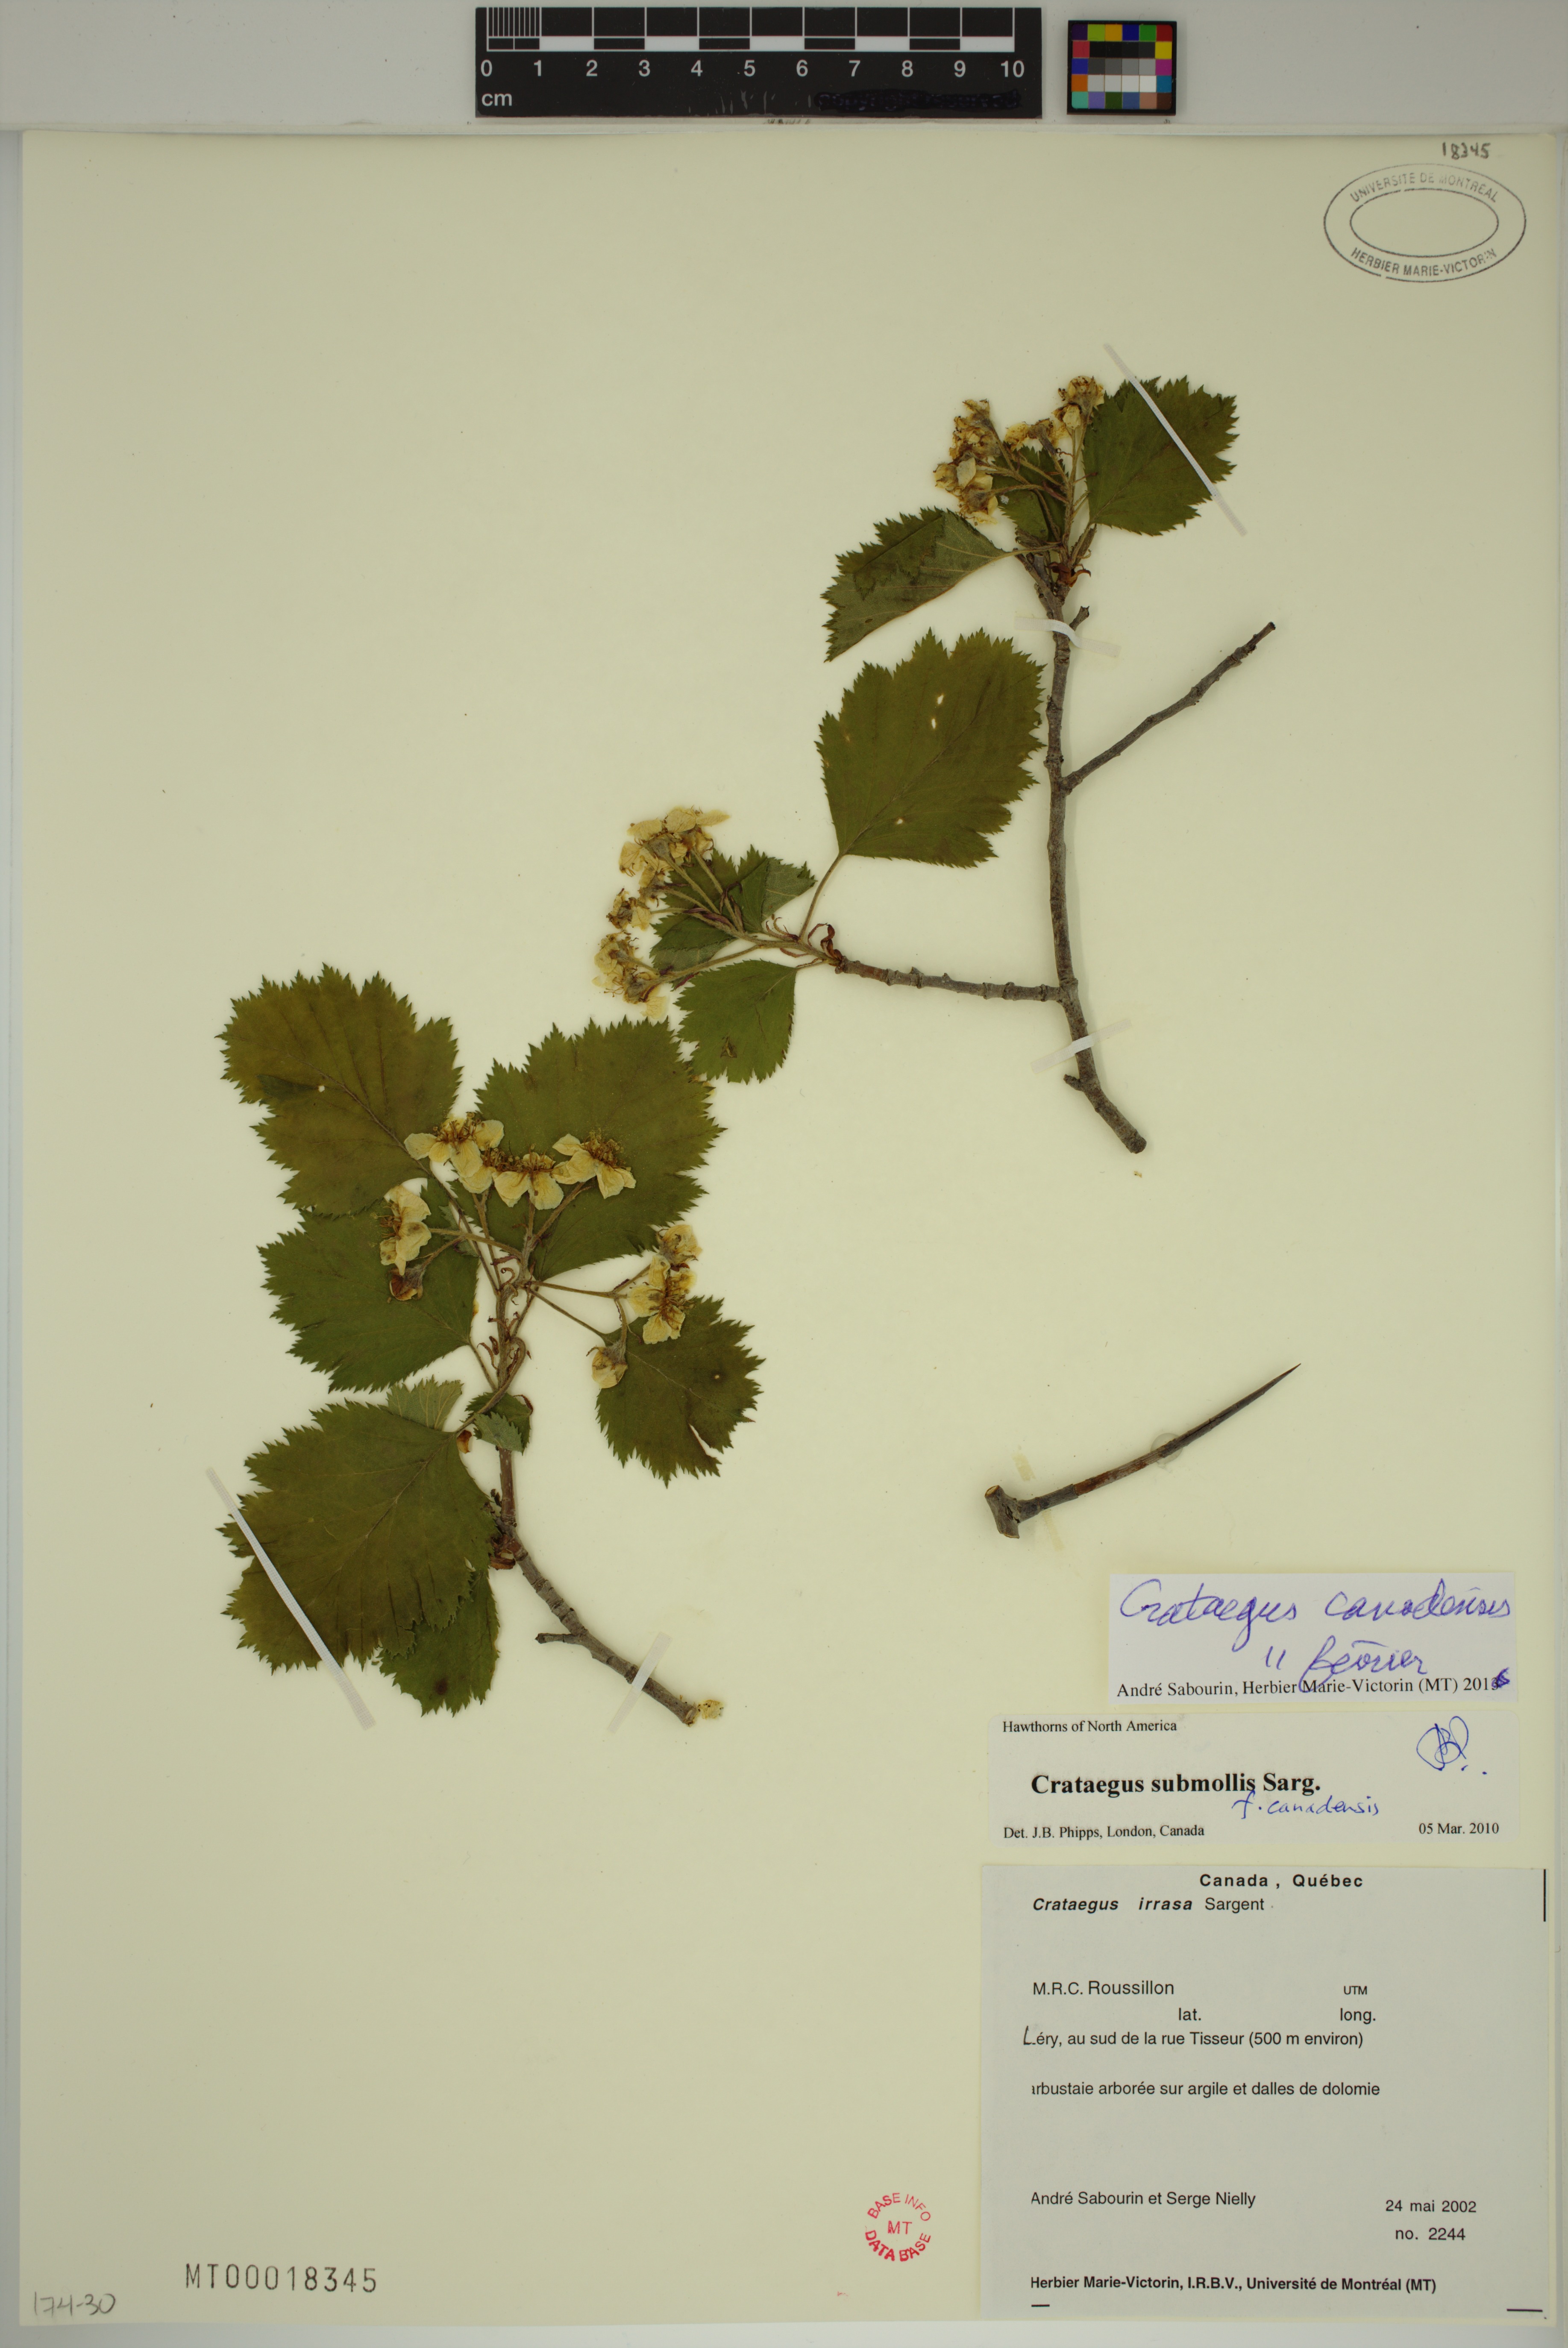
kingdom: Plantae
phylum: Tracheophyta
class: Magnoliopsida
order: Rosales
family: Rosaceae
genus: Crataegus
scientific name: Crataegus submollis
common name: Hairy cockspurthorn
